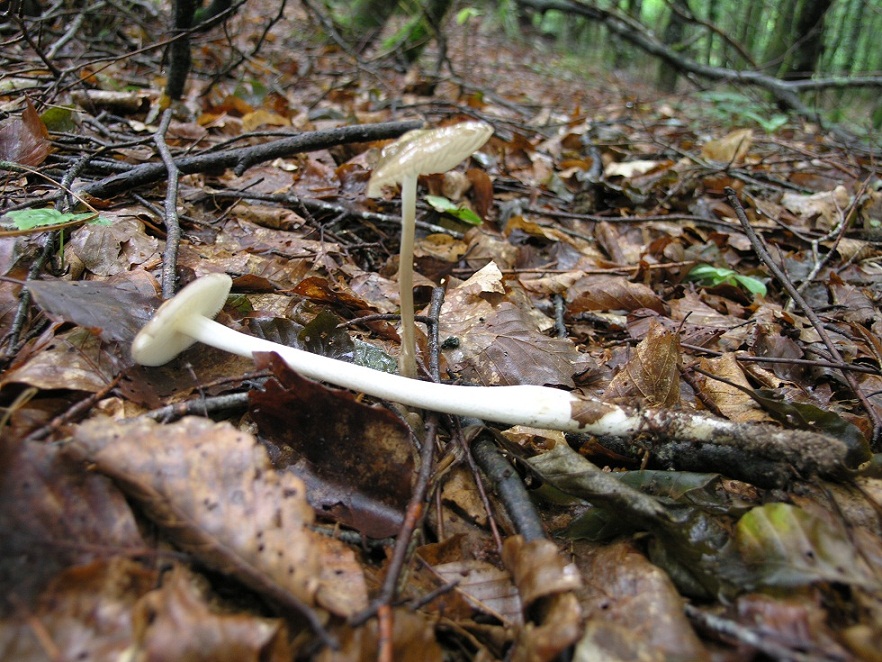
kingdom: Fungi
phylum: Basidiomycota
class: Agaricomycetes
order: Agaricales
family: Physalacriaceae
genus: Hymenopellis
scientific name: Hymenopellis radicata
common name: almindelig pælerodshat
